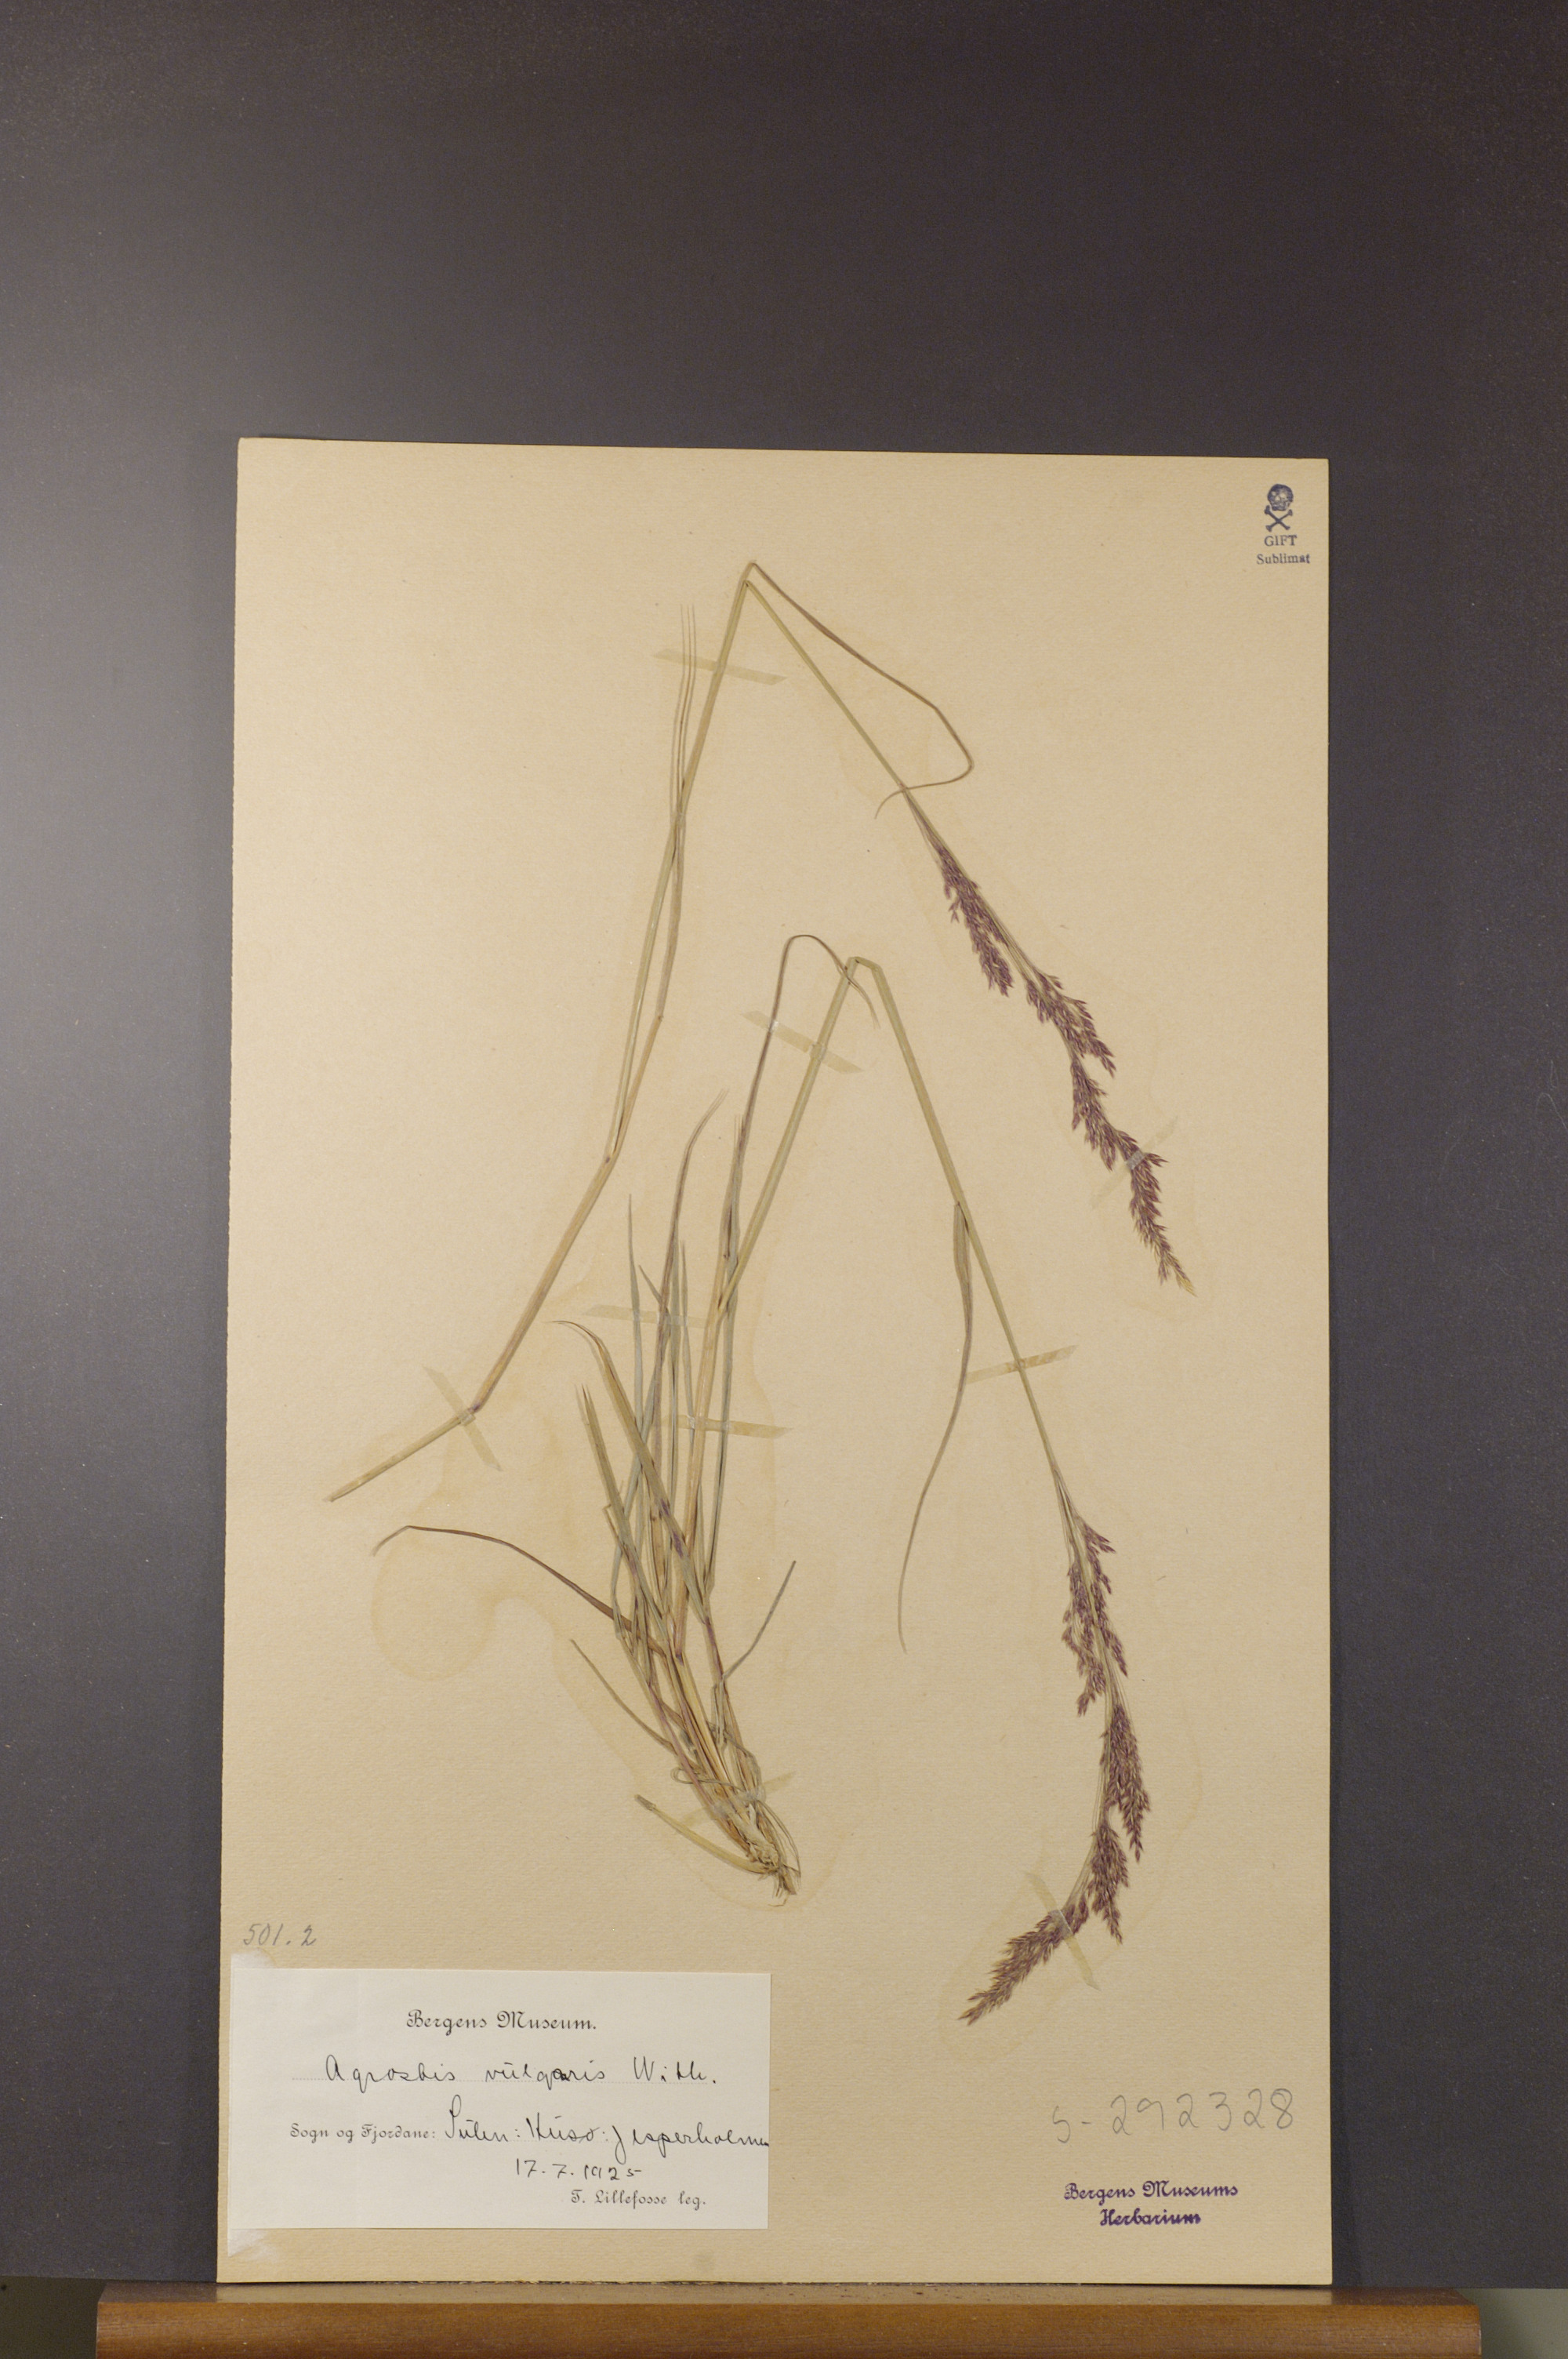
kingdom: Plantae
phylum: Tracheophyta
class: Liliopsida
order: Poales
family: Poaceae
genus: Agrostis
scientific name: Agrostis capillaris
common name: Colonial bentgrass
